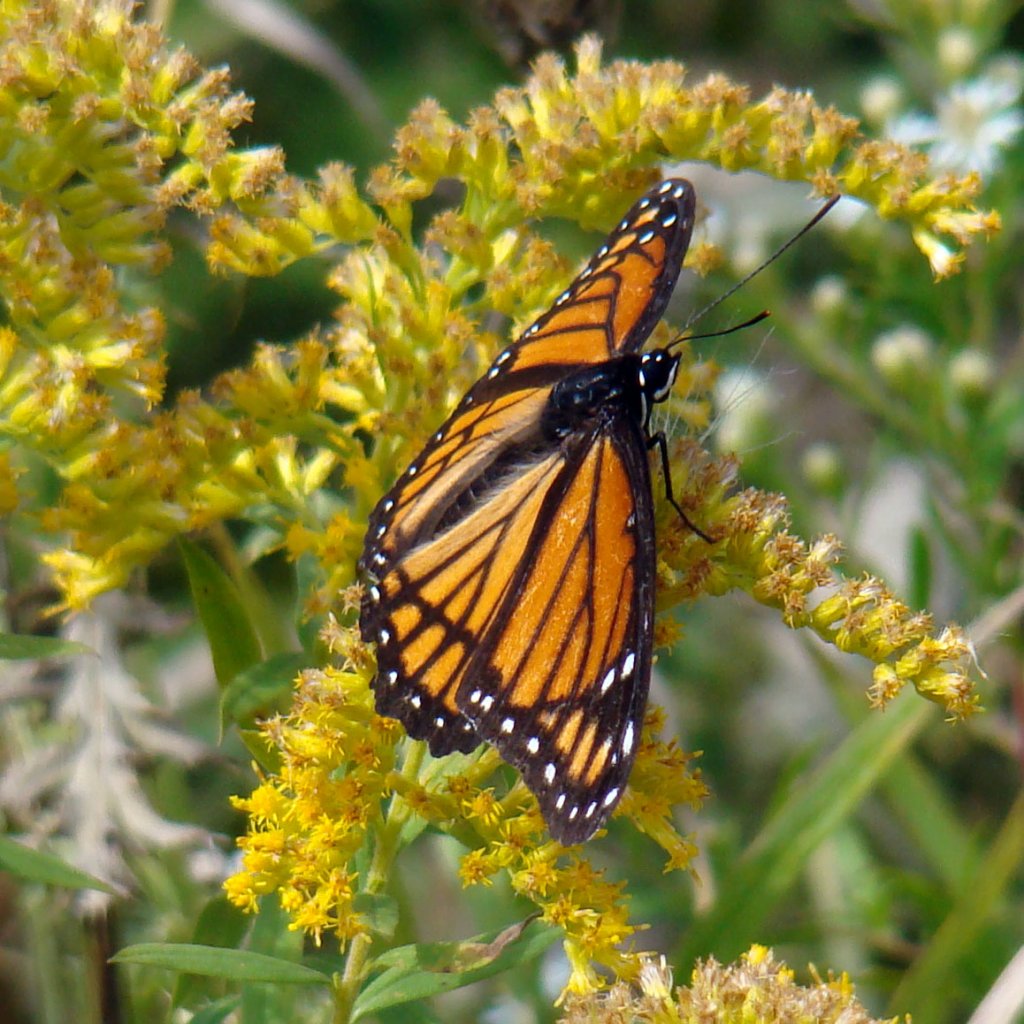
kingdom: Animalia
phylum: Arthropoda
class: Insecta
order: Lepidoptera
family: Nymphalidae
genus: Limenitis
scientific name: Limenitis archippus
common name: Viceroy
